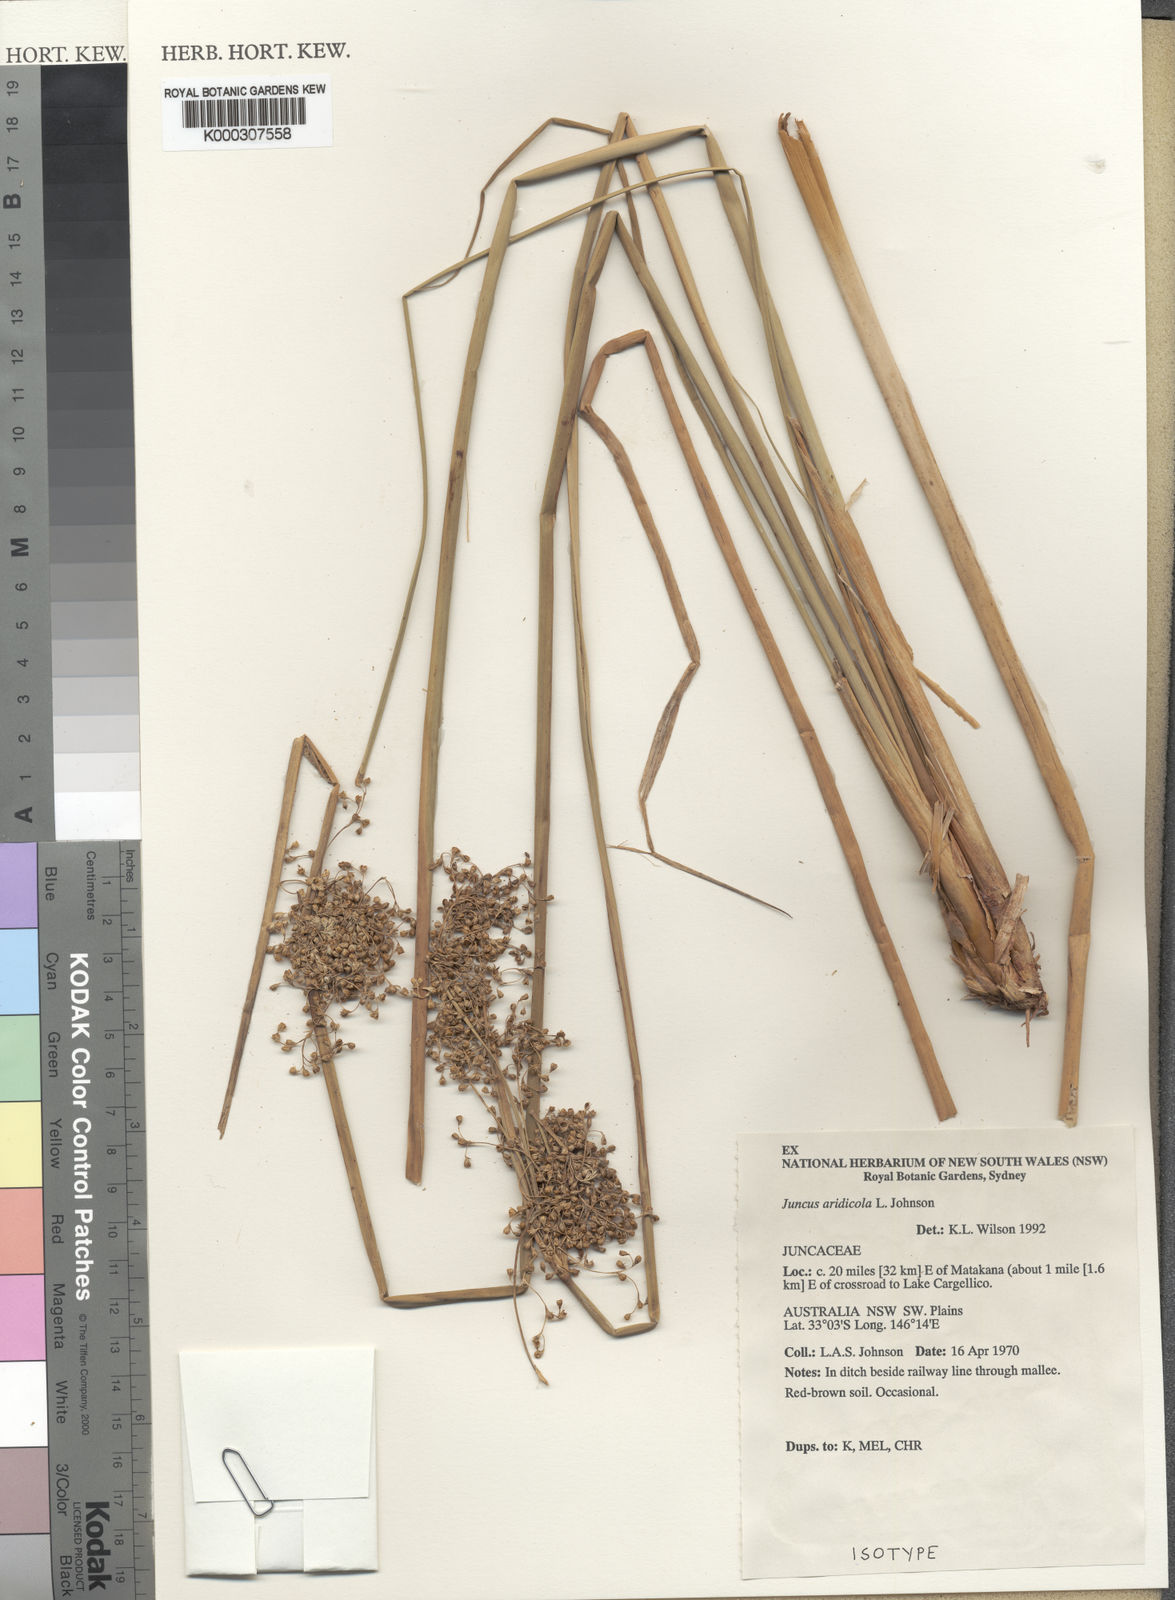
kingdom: Plantae
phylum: Tracheophyta
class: Liliopsida
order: Poales
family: Juncaceae
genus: Juncus
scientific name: Juncus aridicola
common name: Tussock rush
